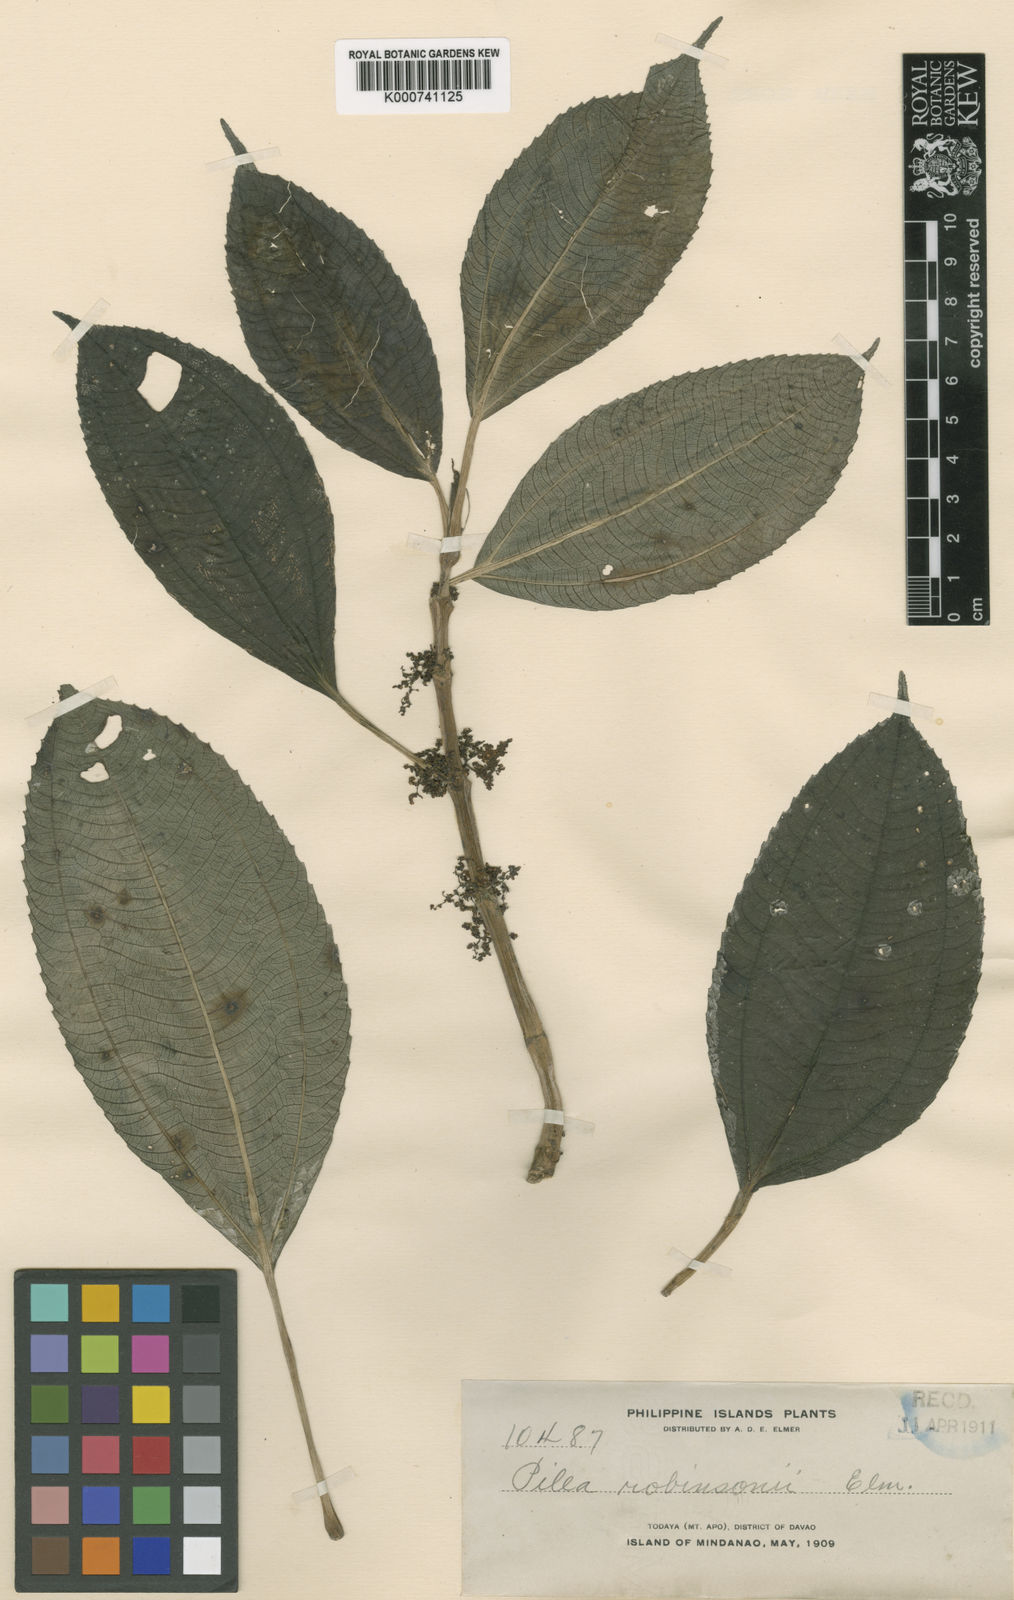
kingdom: Plantae
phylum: Tracheophyta
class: Magnoliopsida
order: Rosales
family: Urticaceae
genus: Pilea
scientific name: Pilea robinsonii
